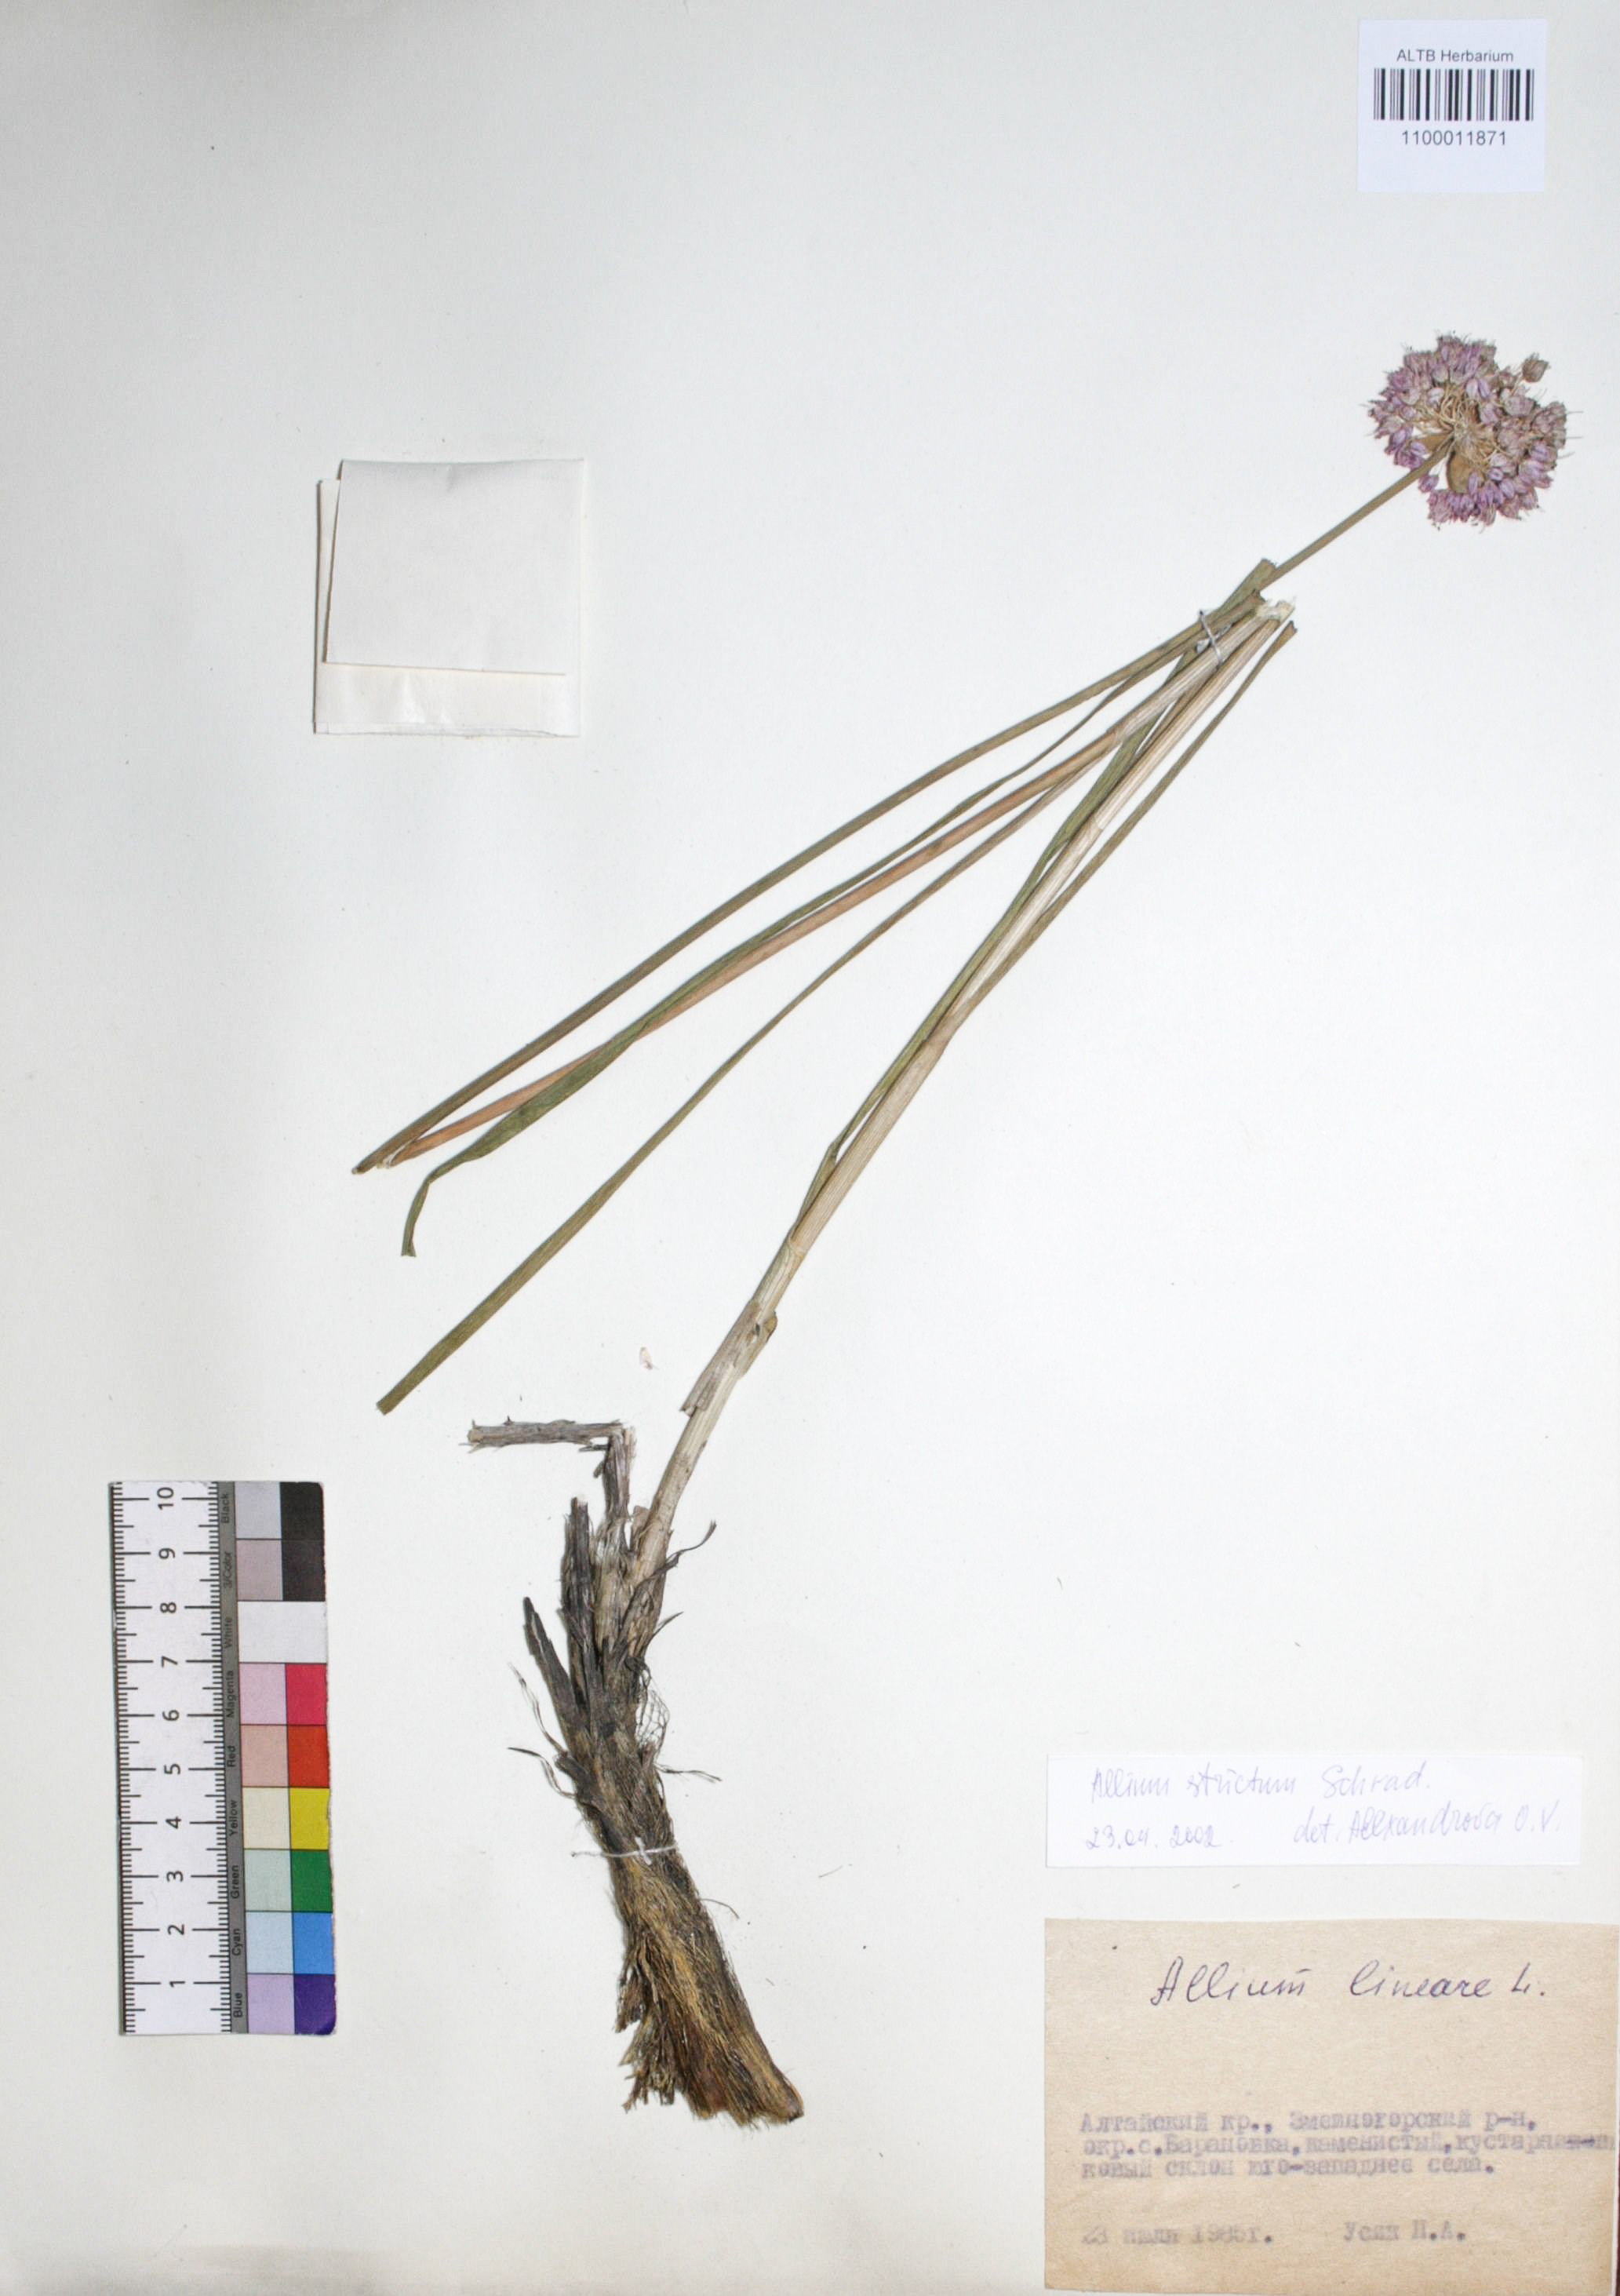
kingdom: Plantae
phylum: Tracheophyta
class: Liliopsida
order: Asparagales
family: Amaryllidaceae
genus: Allium
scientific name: Allium strictum
